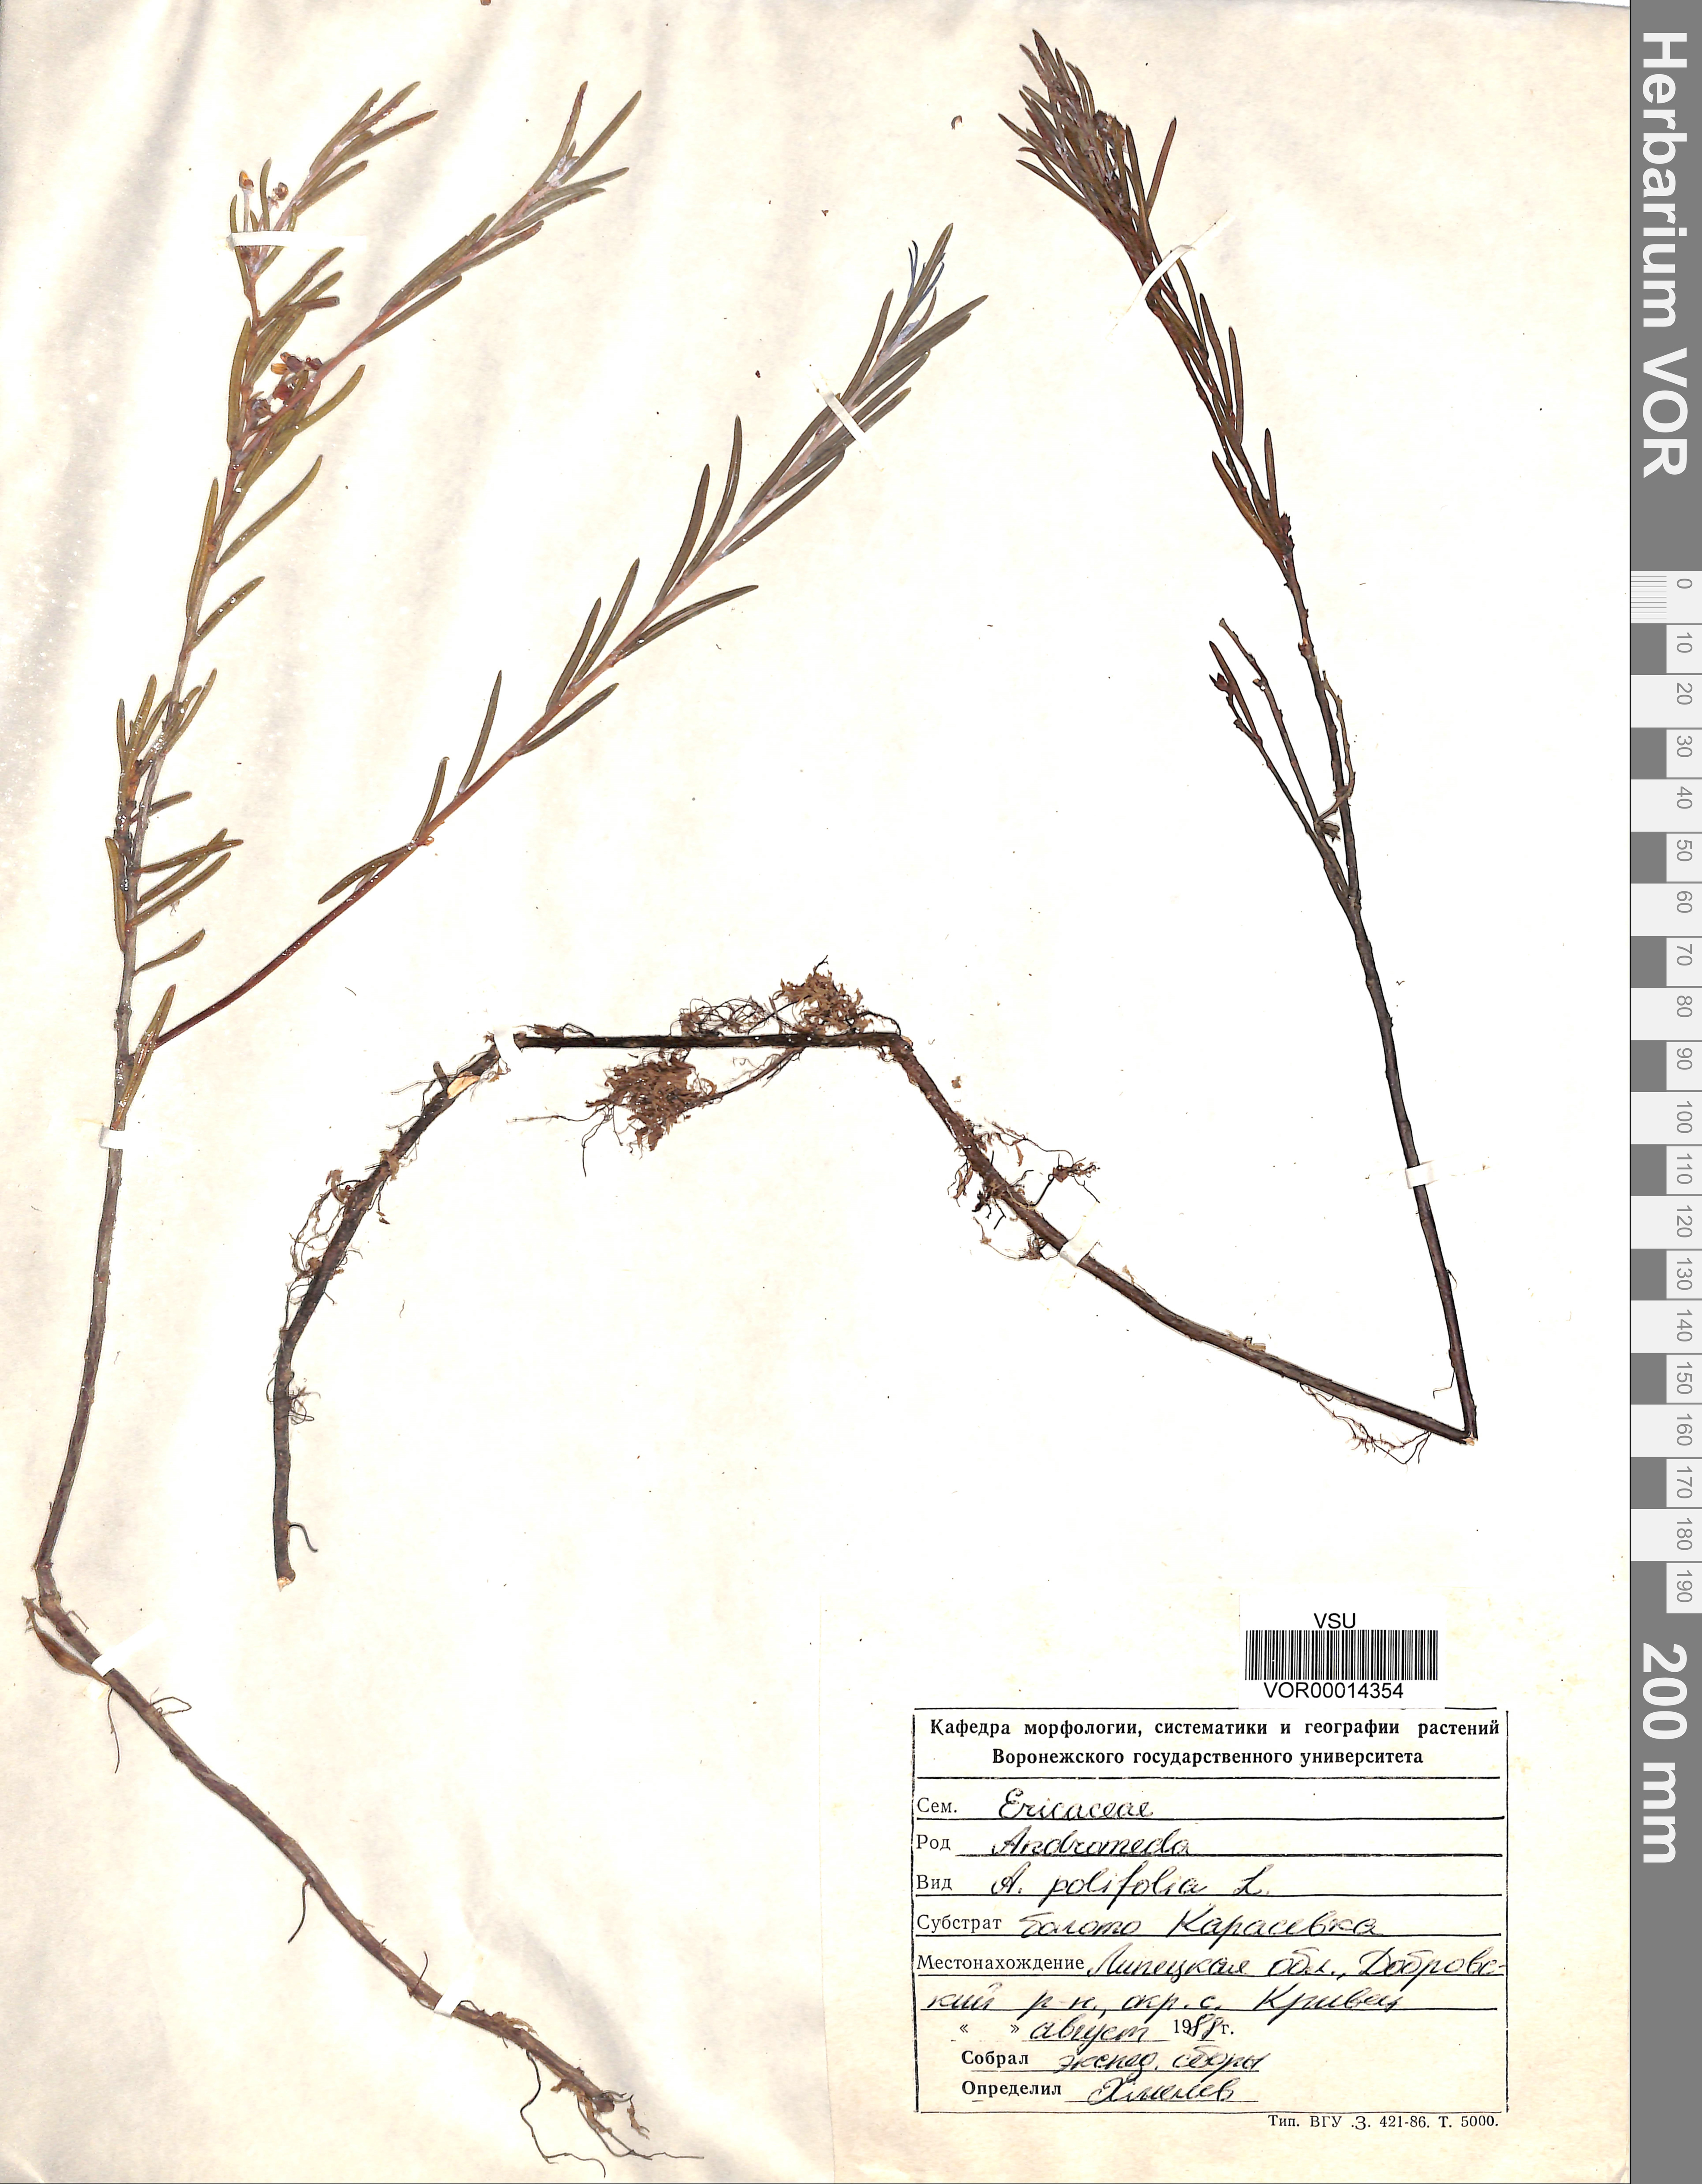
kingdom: Plantae
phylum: Tracheophyta
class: Magnoliopsida
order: Ericales
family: Ericaceae
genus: Andromeda
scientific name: Andromeda polifolia
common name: Bog-rosemary
